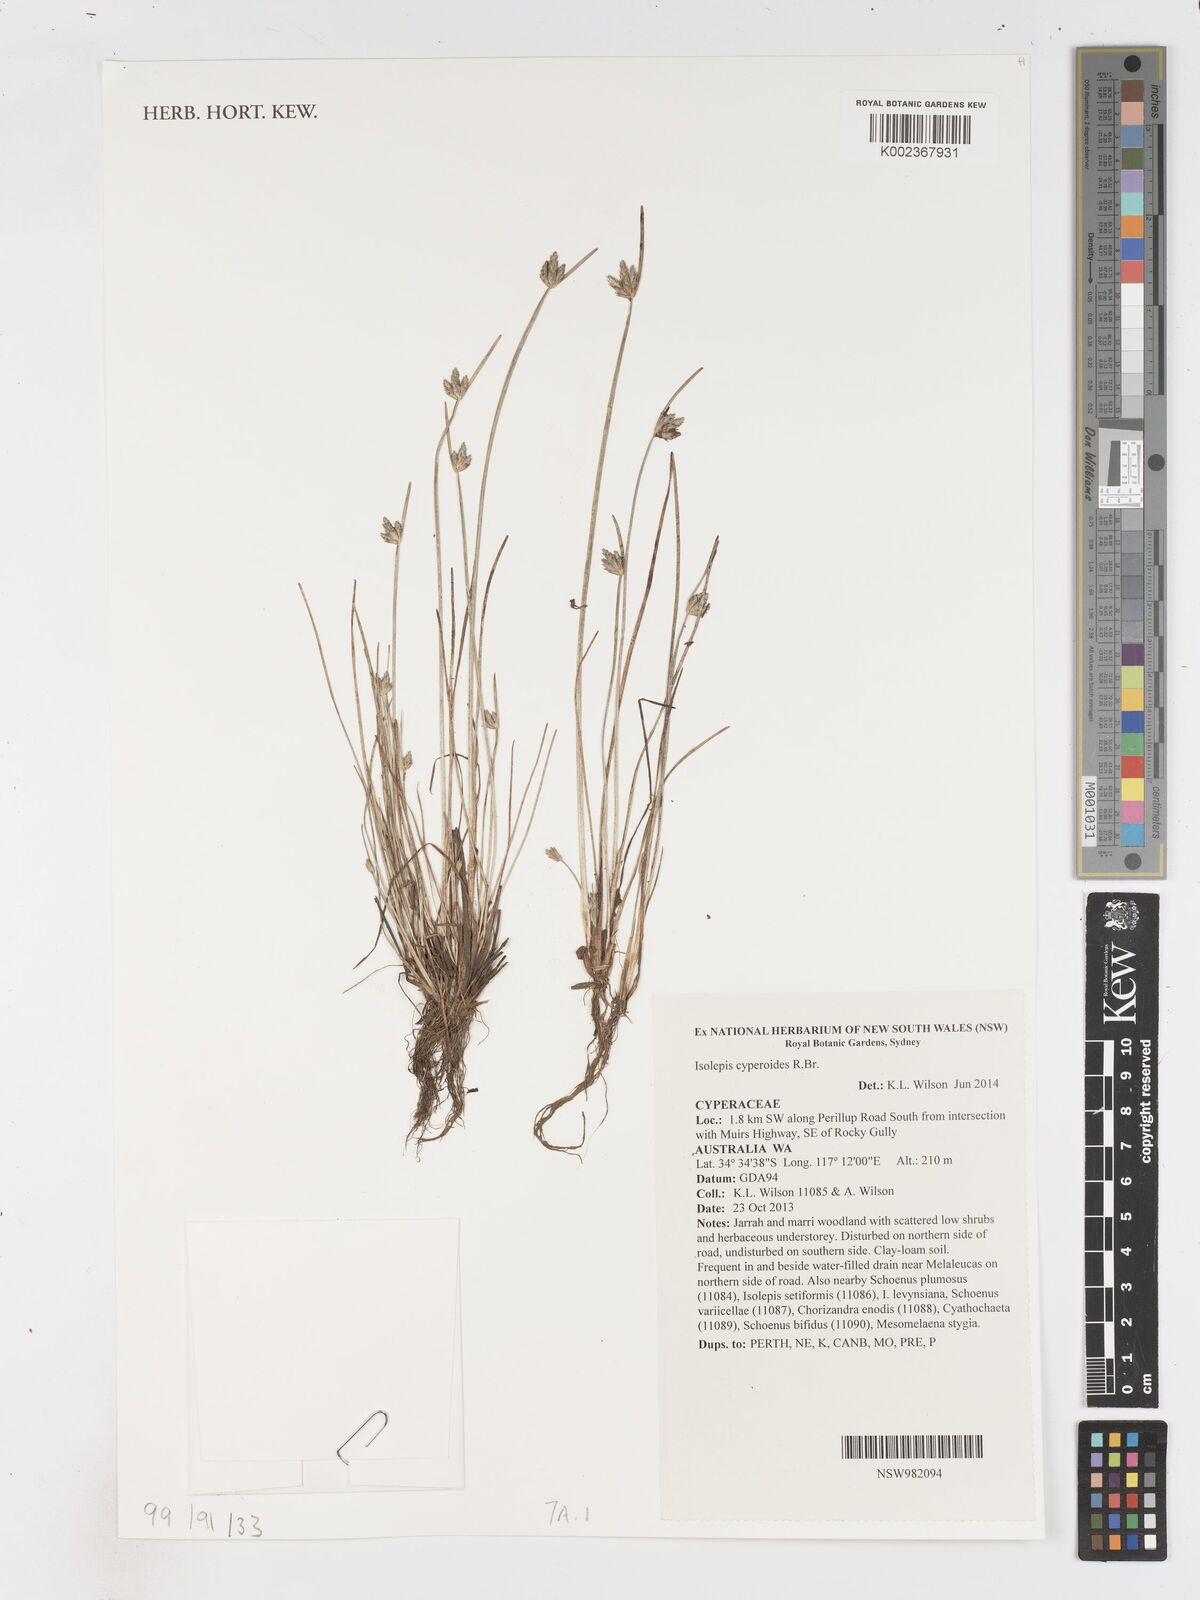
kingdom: Plantae
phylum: Tracheophyta
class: Liliopsida
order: Poales
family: Cyperaceae
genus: Isolepis
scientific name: Isolepis cyperoides
